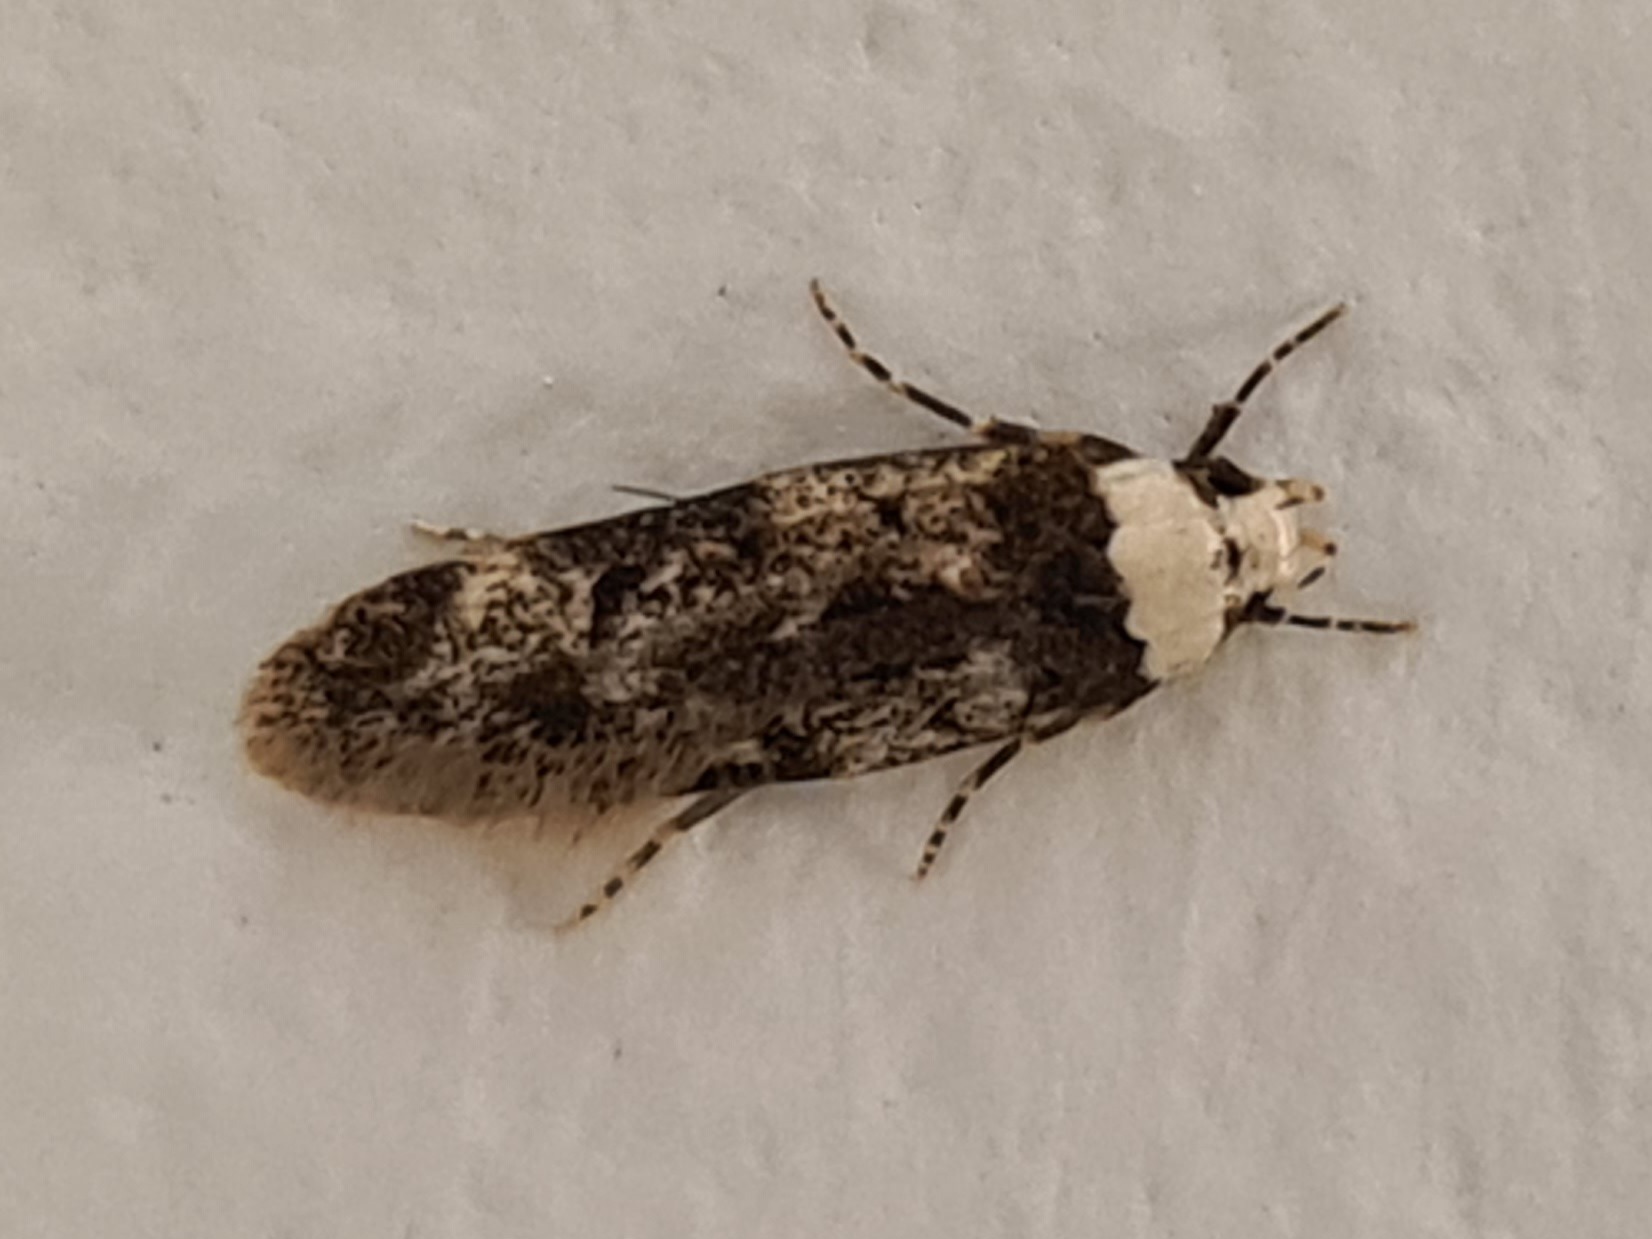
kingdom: Animalia
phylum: Arthropoda
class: Insecta
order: Lepidoptera
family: Oecophoridae
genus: Endrosis
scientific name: Endrosis sarcitrella
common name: Klistermøl
